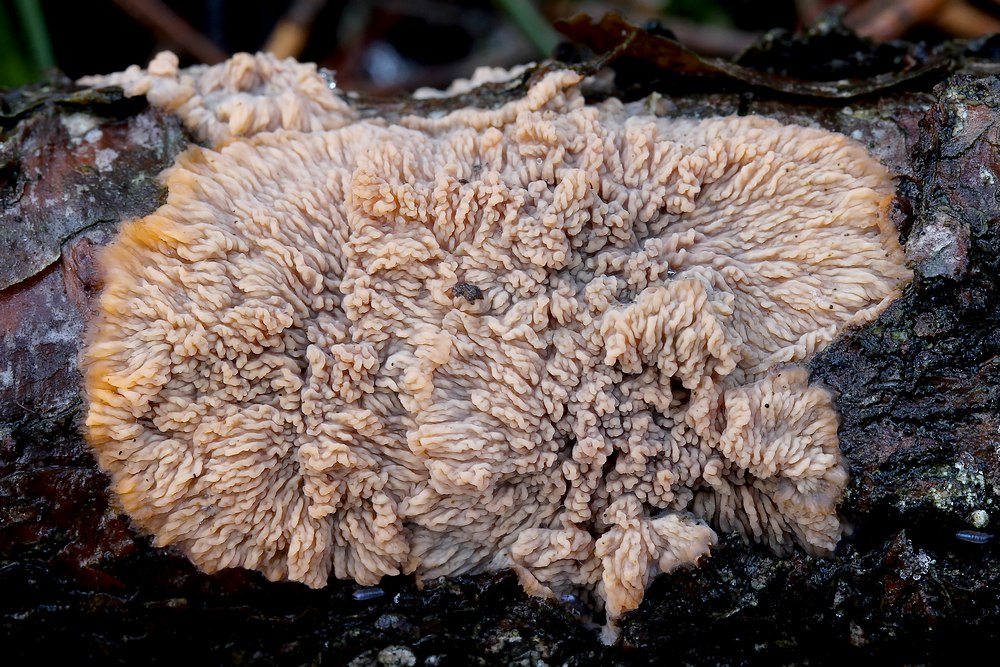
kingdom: Fungi
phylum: Basidiomycota
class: Agaricomycetes
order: Polyporales
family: Meruliaceae
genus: Phlebia
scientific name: Phlebia radiata
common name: stråle-åresvamp
